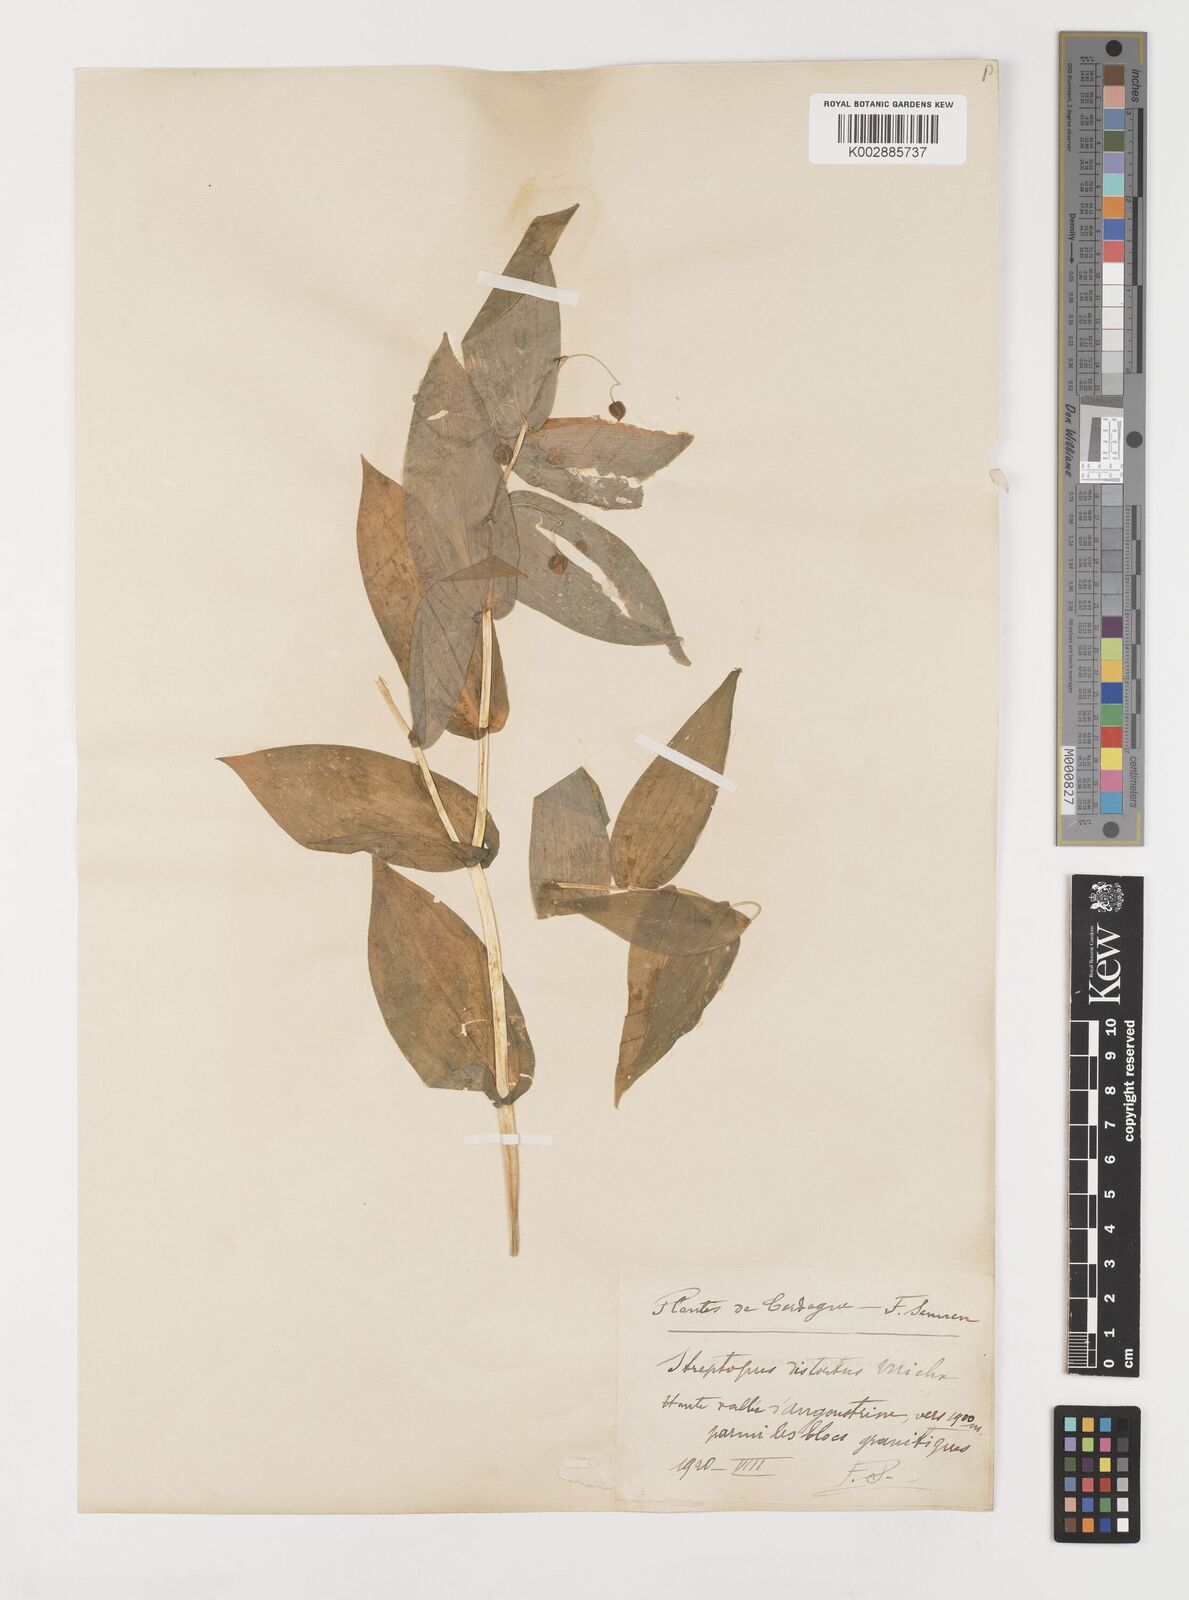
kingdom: Plantae
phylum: Tracheophyta
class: Liliopsida
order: Liliales
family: Liliaceae
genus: Streptopus
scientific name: Streptopus amplexifolius
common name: Clasp twisted stalk
